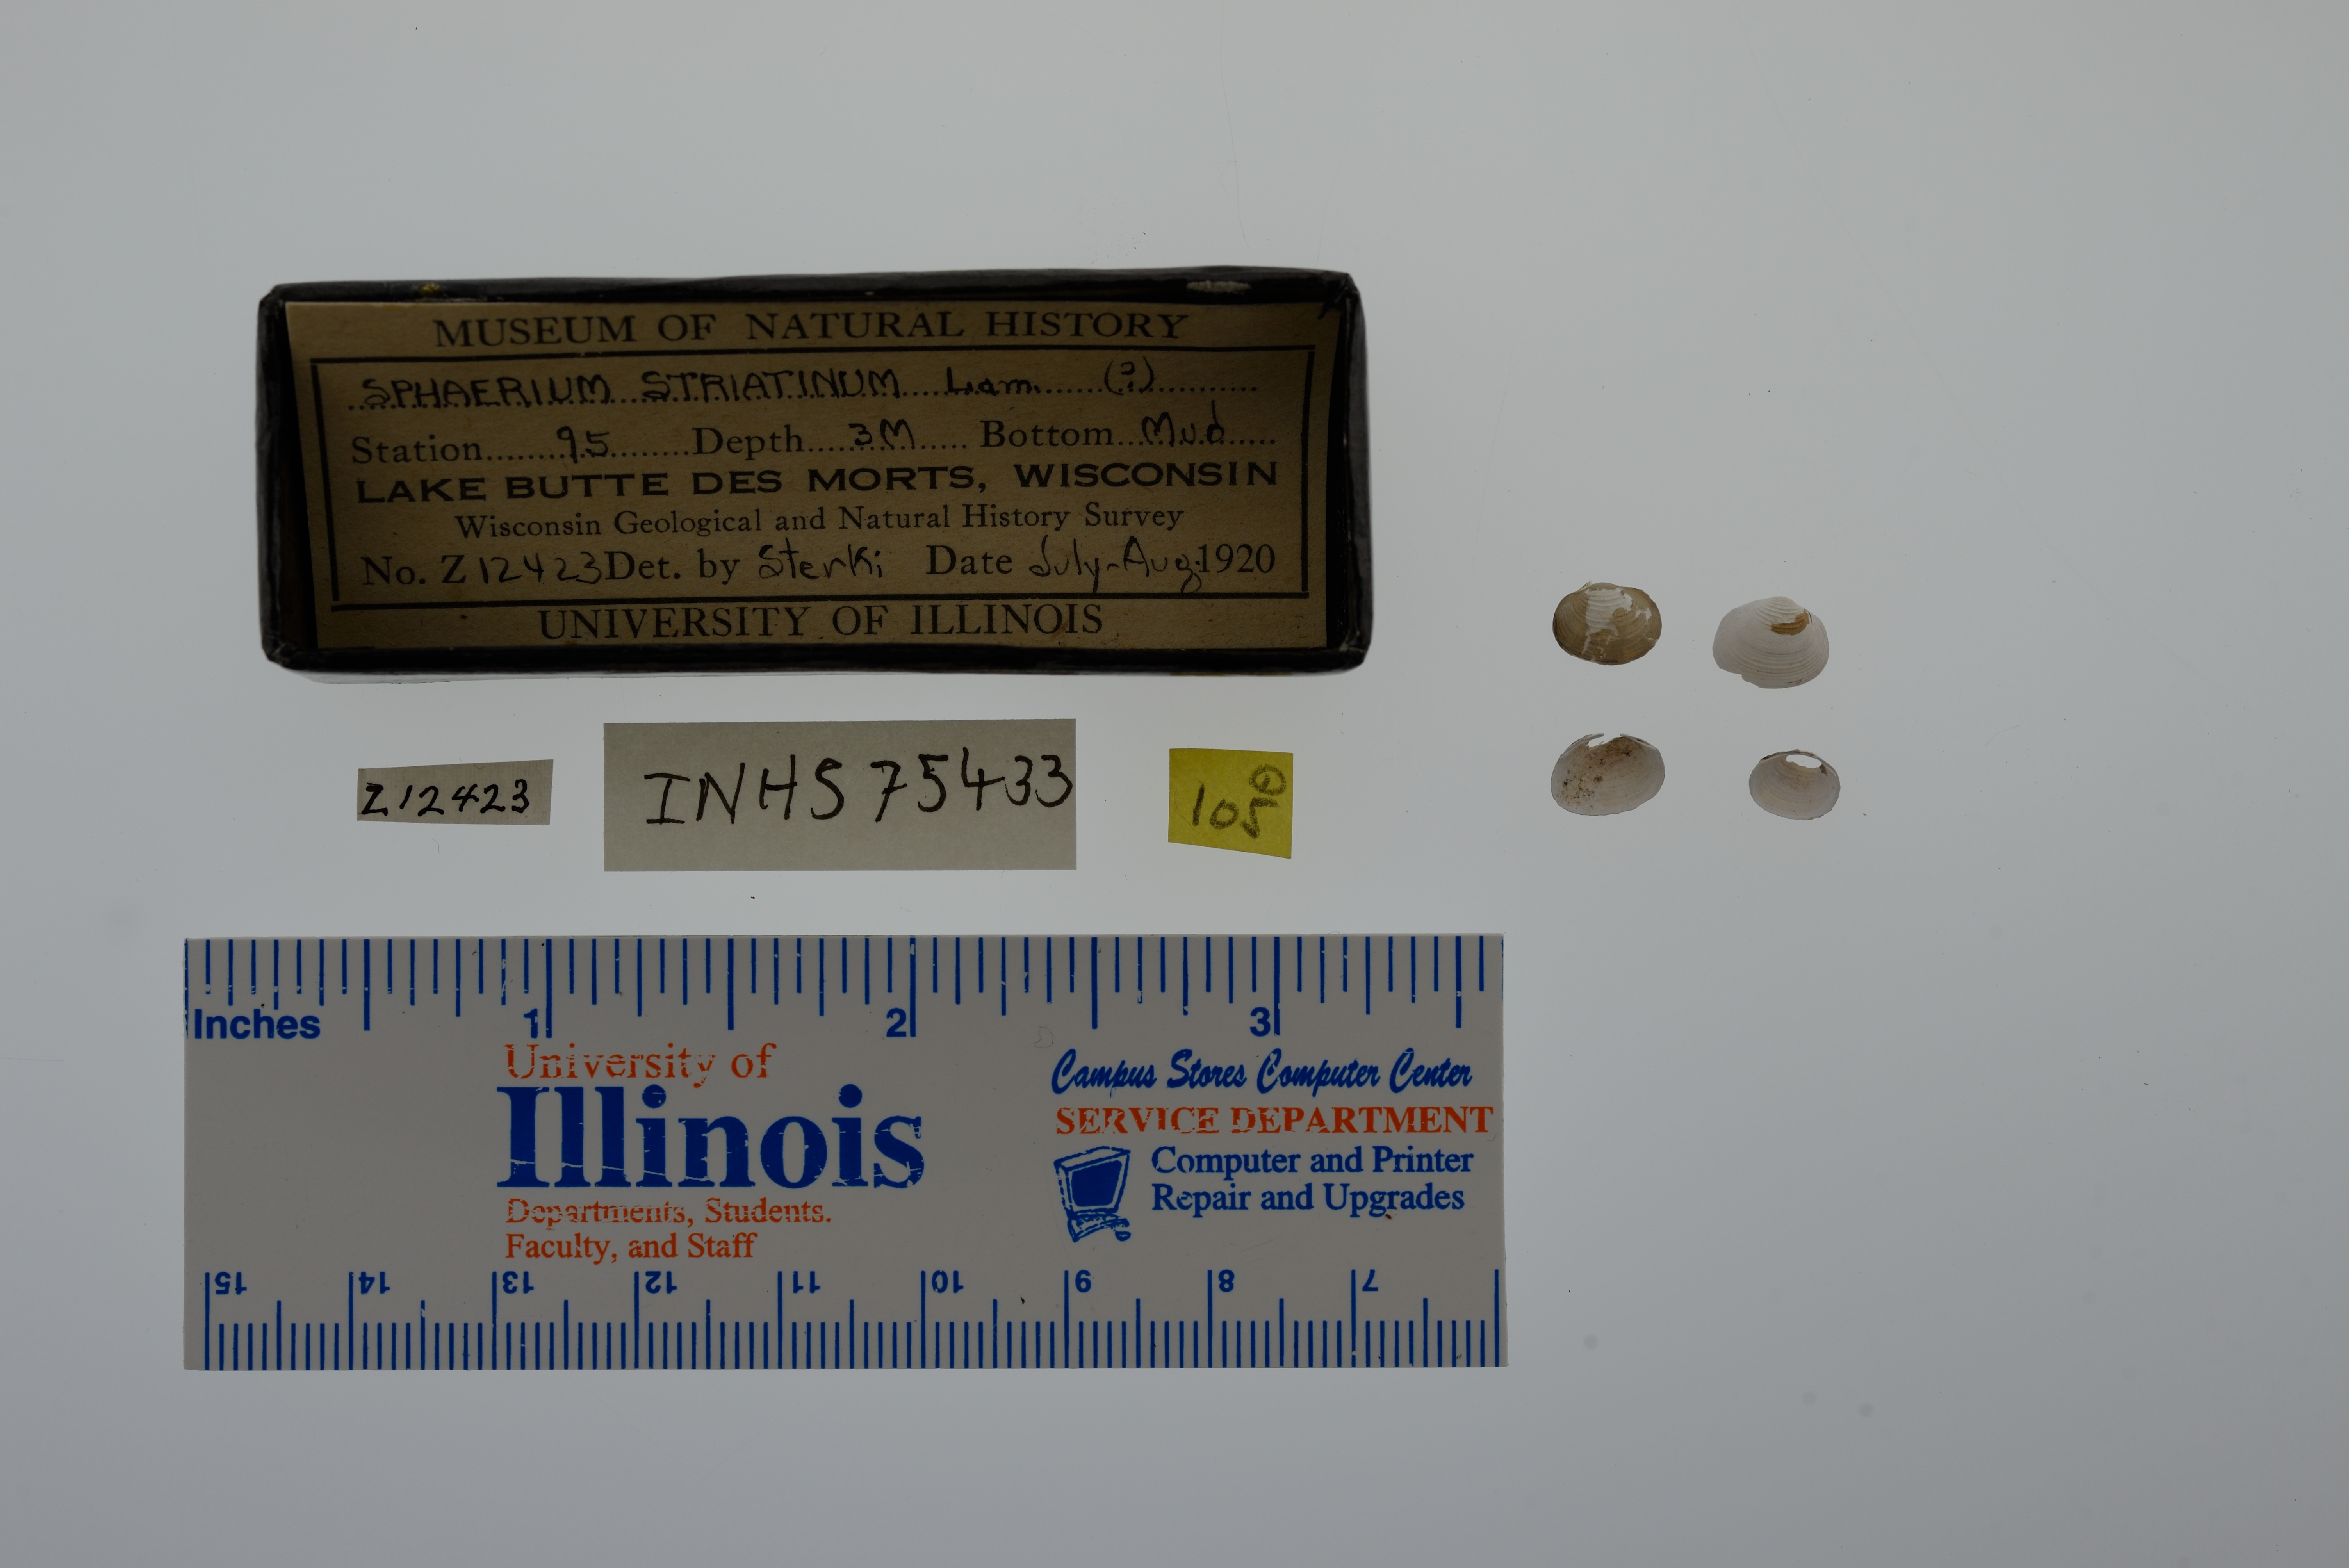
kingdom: Animalia
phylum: Mollusca
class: Bivalvia
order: Sphaeriida
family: Sphaeriidae
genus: Sphaerium
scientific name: Sphaerium striatinum
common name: Striated fingernailclam
